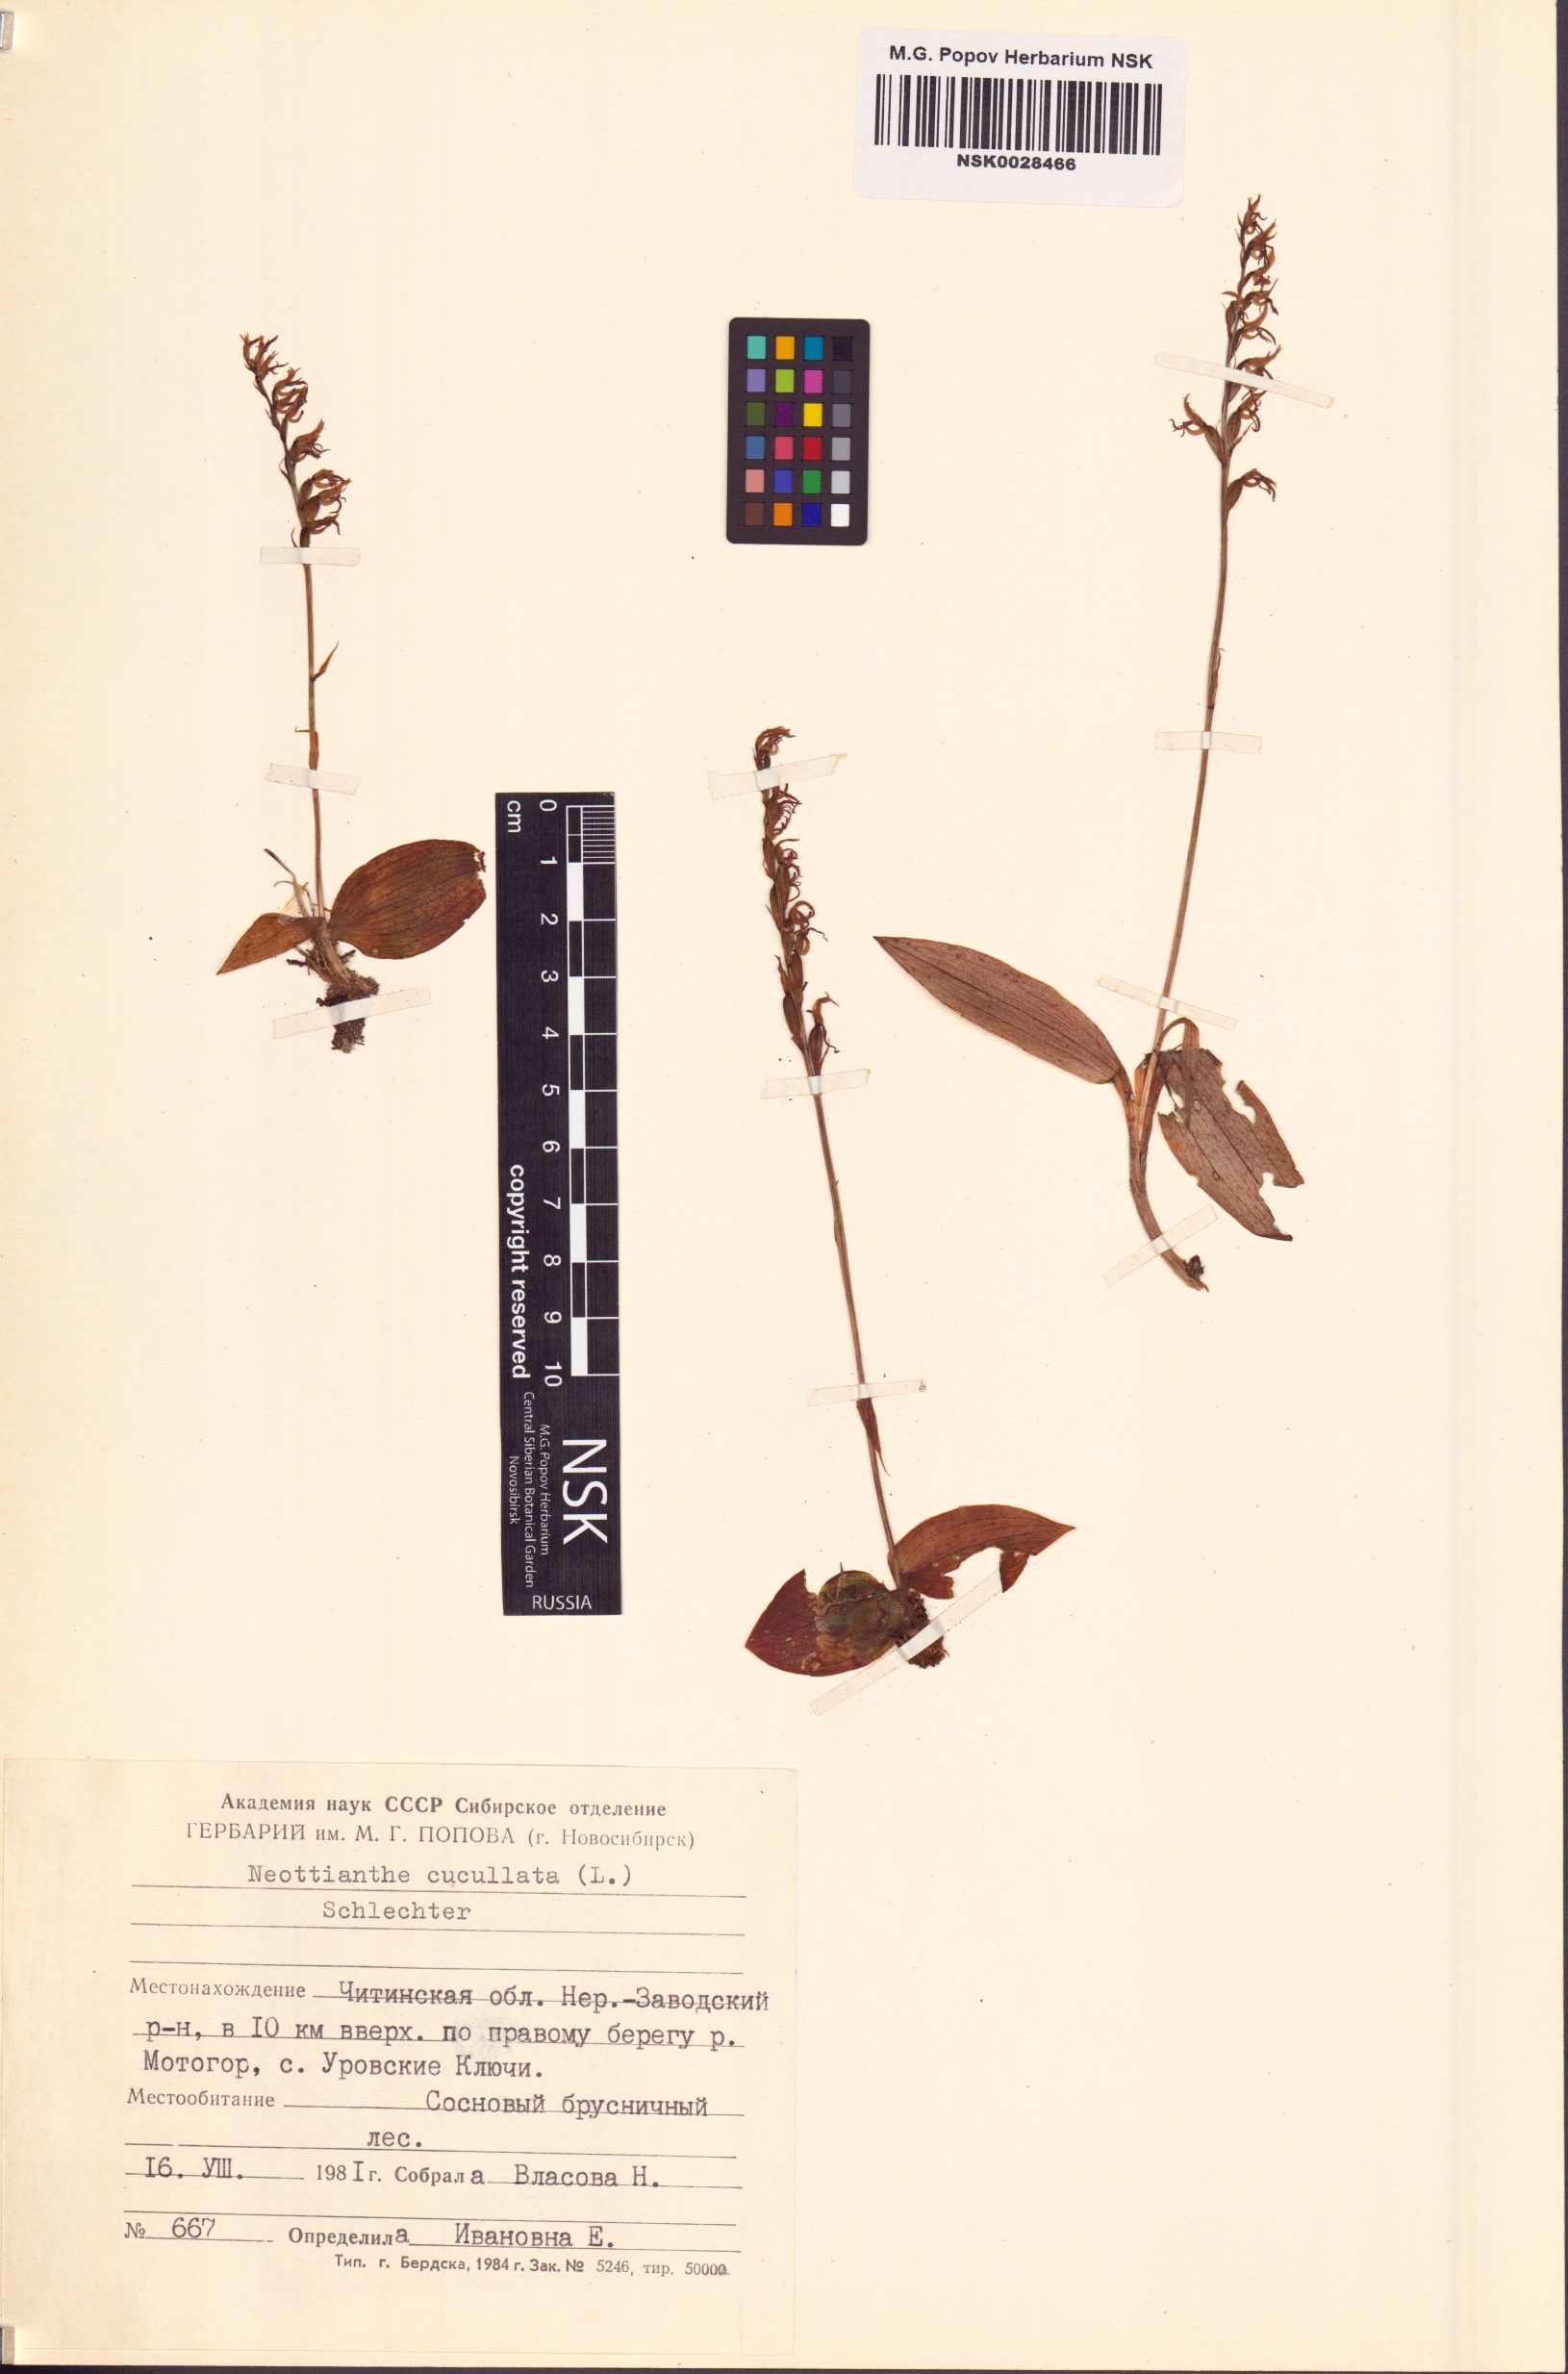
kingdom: Plantae
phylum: Tracheophyta
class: Liliopsida
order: Asparagales
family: Orchidaceae
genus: Hemipilia
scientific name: Hemipilia cucullata
